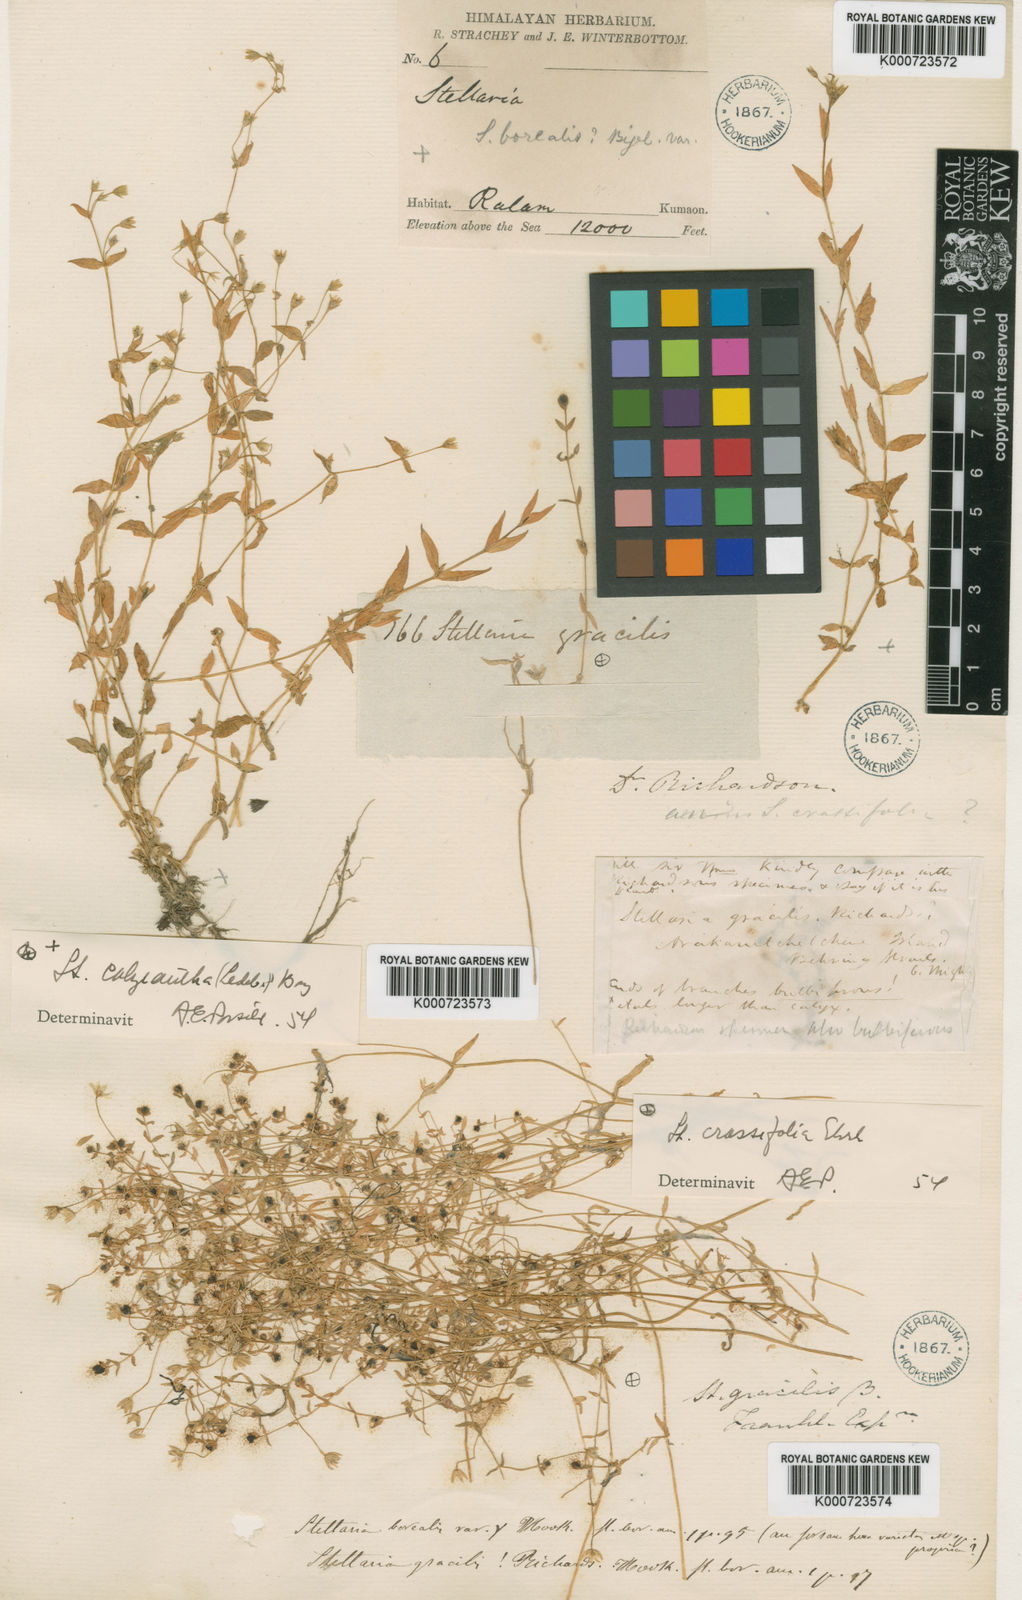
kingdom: Plantae
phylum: Tracheophyta
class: Magnoliopsida
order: Caryophyllales
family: Caryophyllaceae
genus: Stellaria
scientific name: Stellaria humifusa
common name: Creeping starwort
